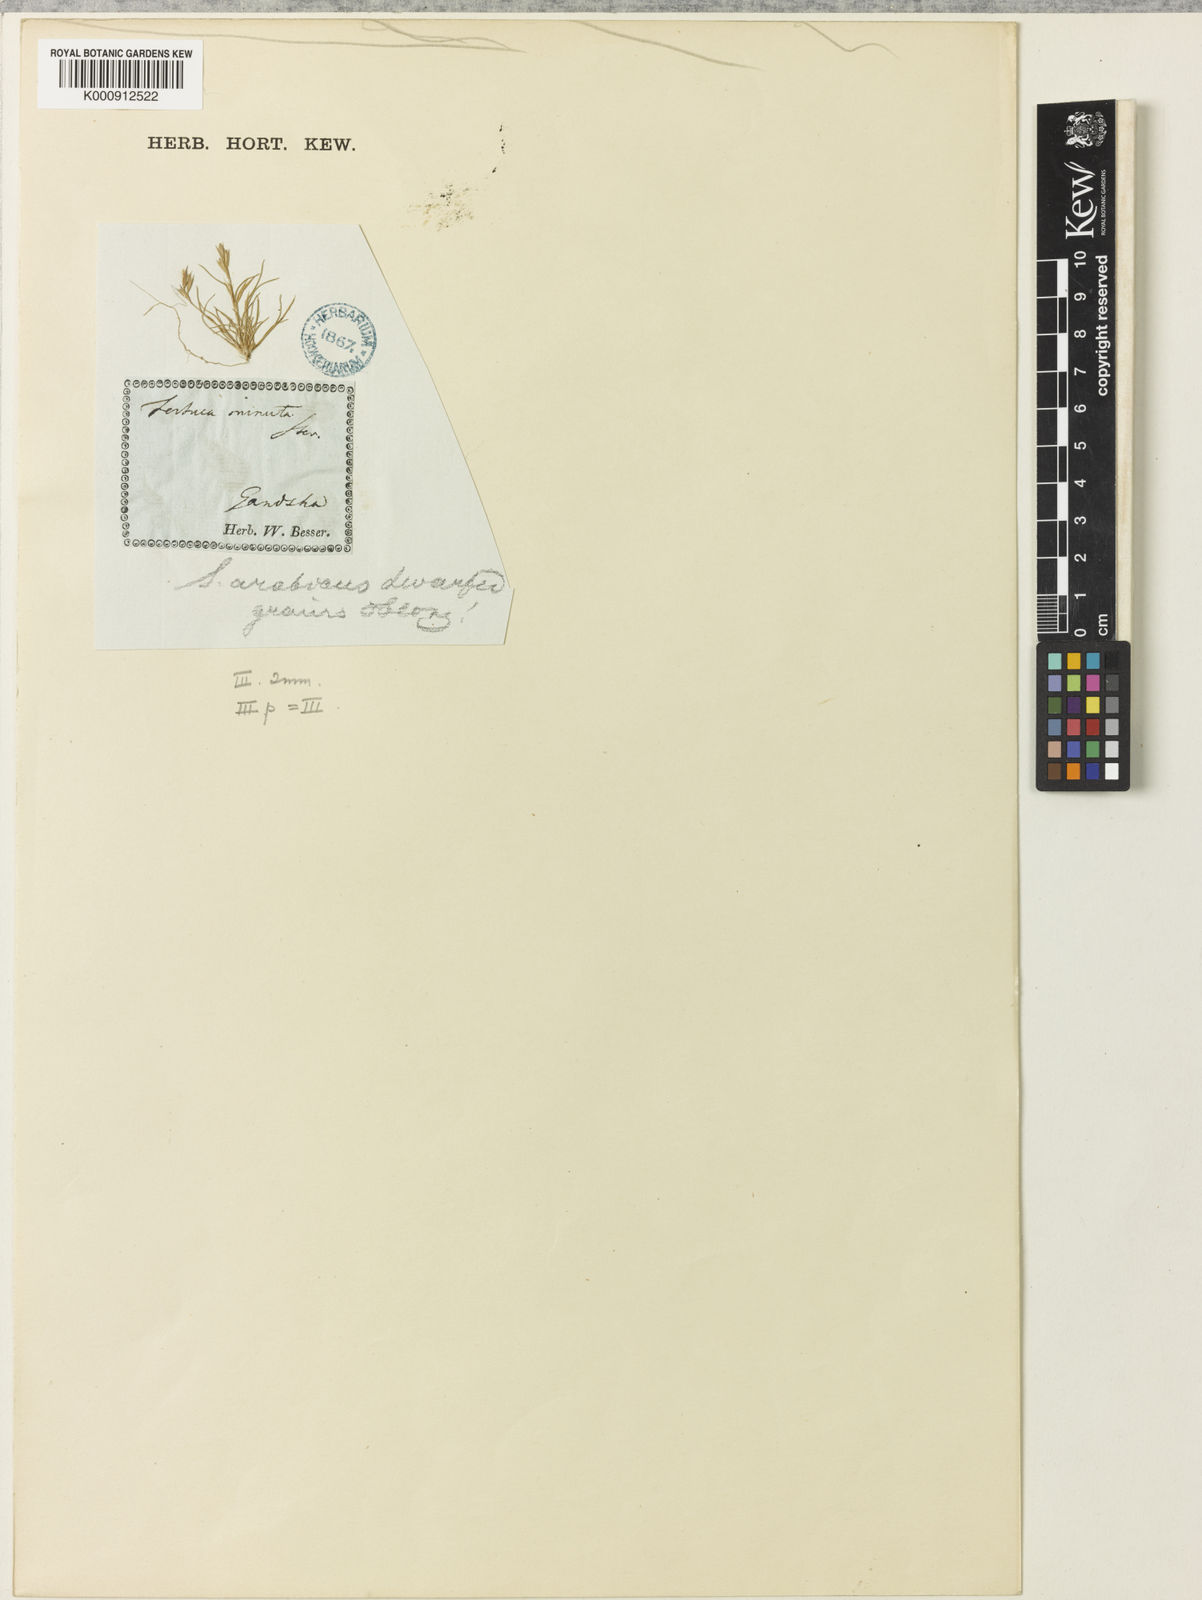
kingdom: Plantae
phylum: Tracheophyta
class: Liliopsida
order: Poales
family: Poaceae
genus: Schismus
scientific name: Schismus barbatus
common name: Kelch-grass
